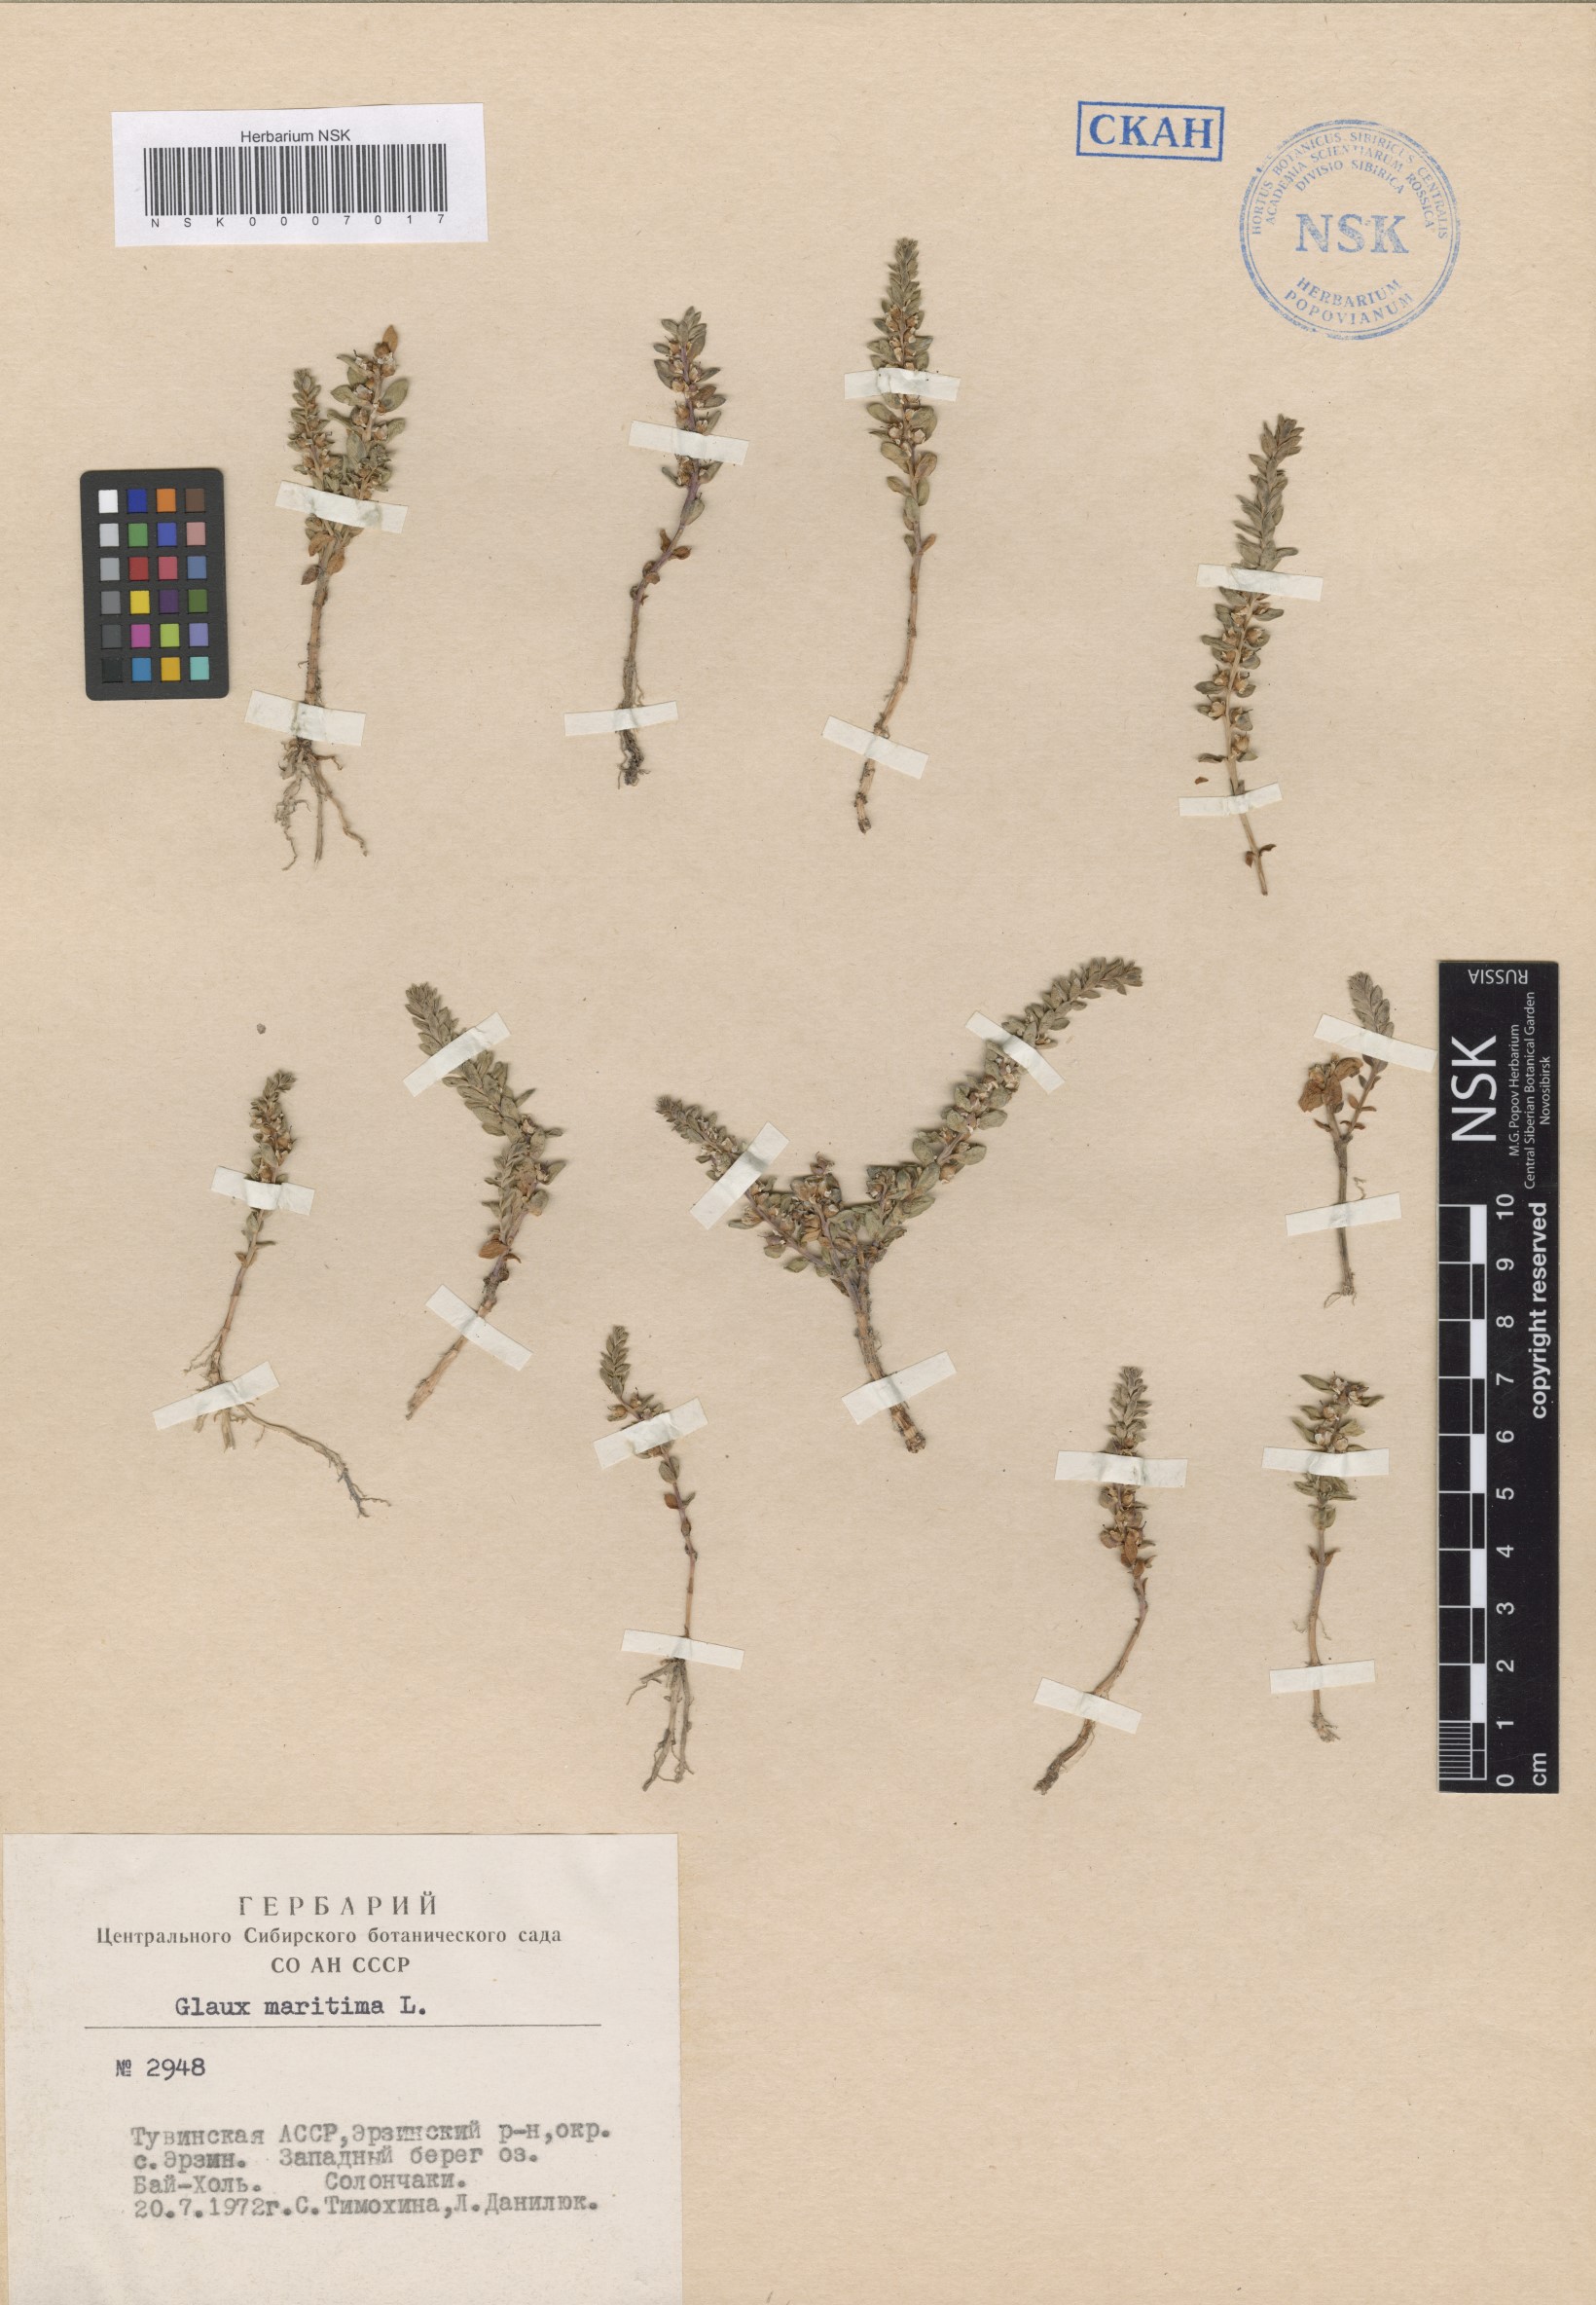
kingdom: Plantae
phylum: Tracheophyta
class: Magnoliopsida
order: Ericales
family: Primulaceae
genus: Lysimachia
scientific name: Lysimachia maritima
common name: Sea milkwort
